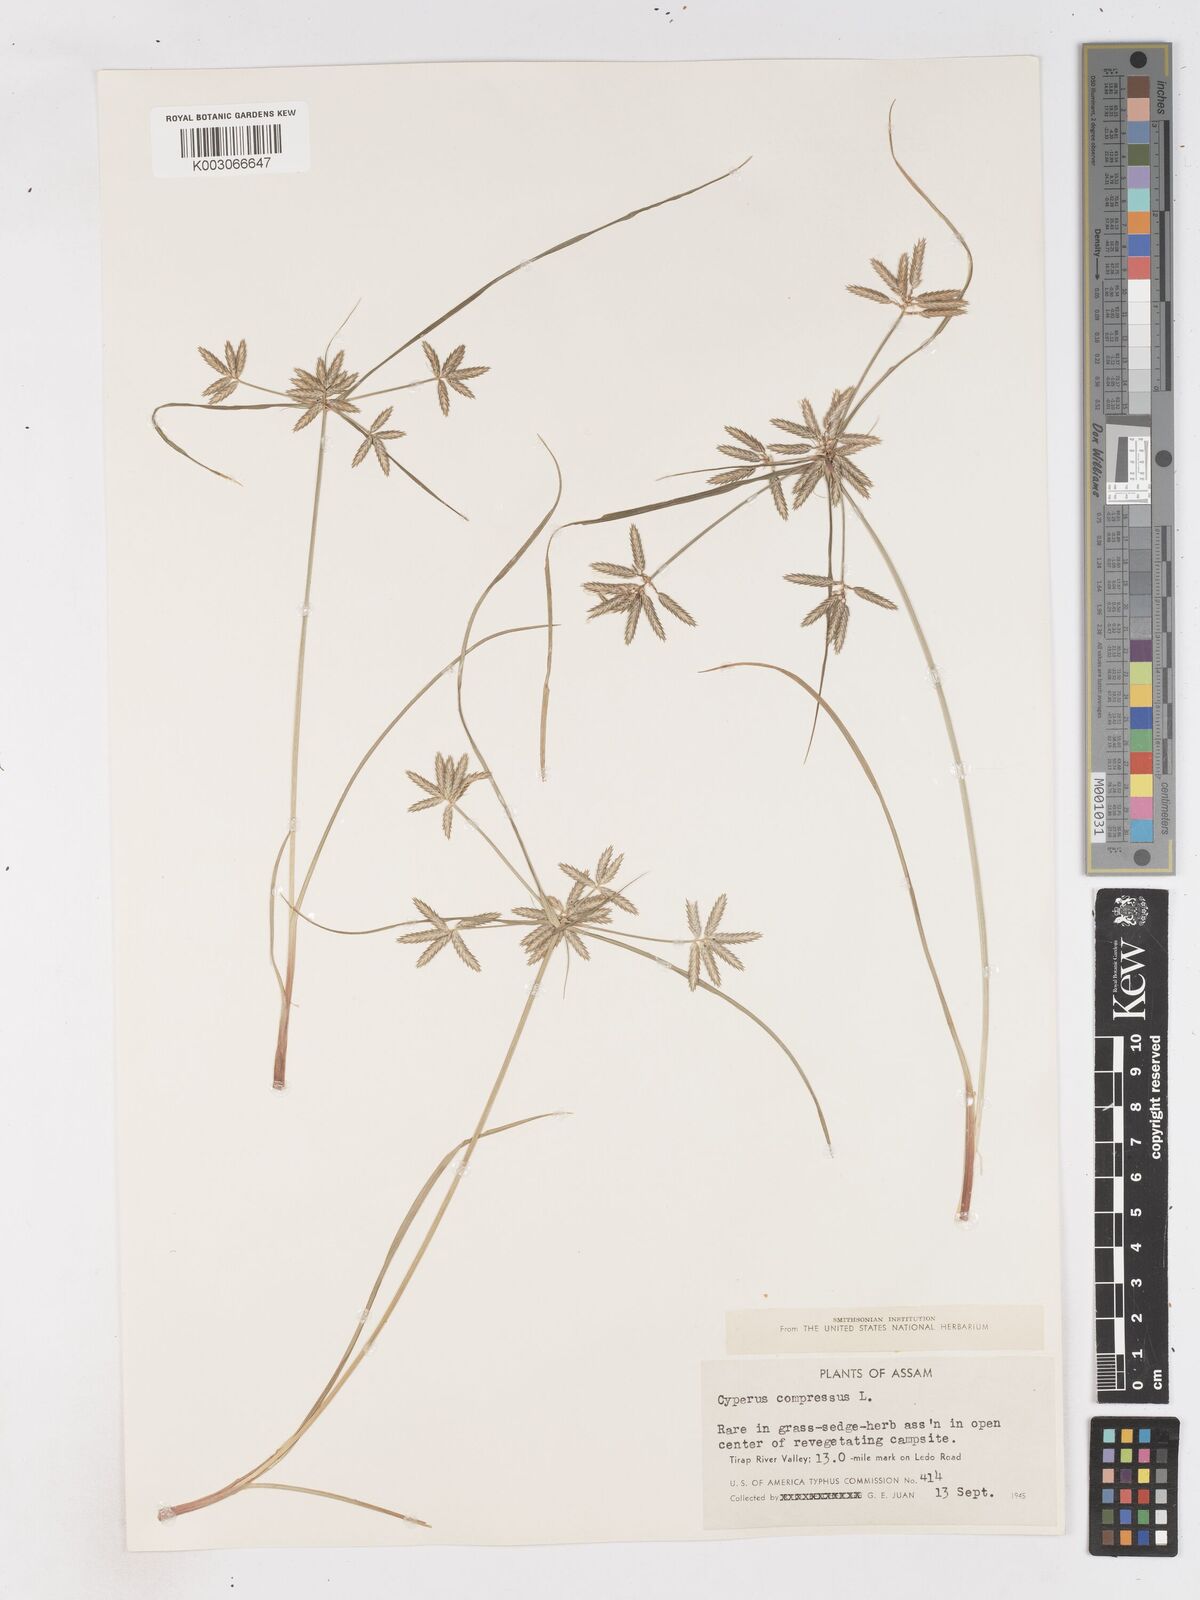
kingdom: Plantae
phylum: Tracheophyta
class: Liliopsida
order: Poales
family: Cyperaceae
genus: Cyperus
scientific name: Cyperus compressus
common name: Poorland flatsedge
